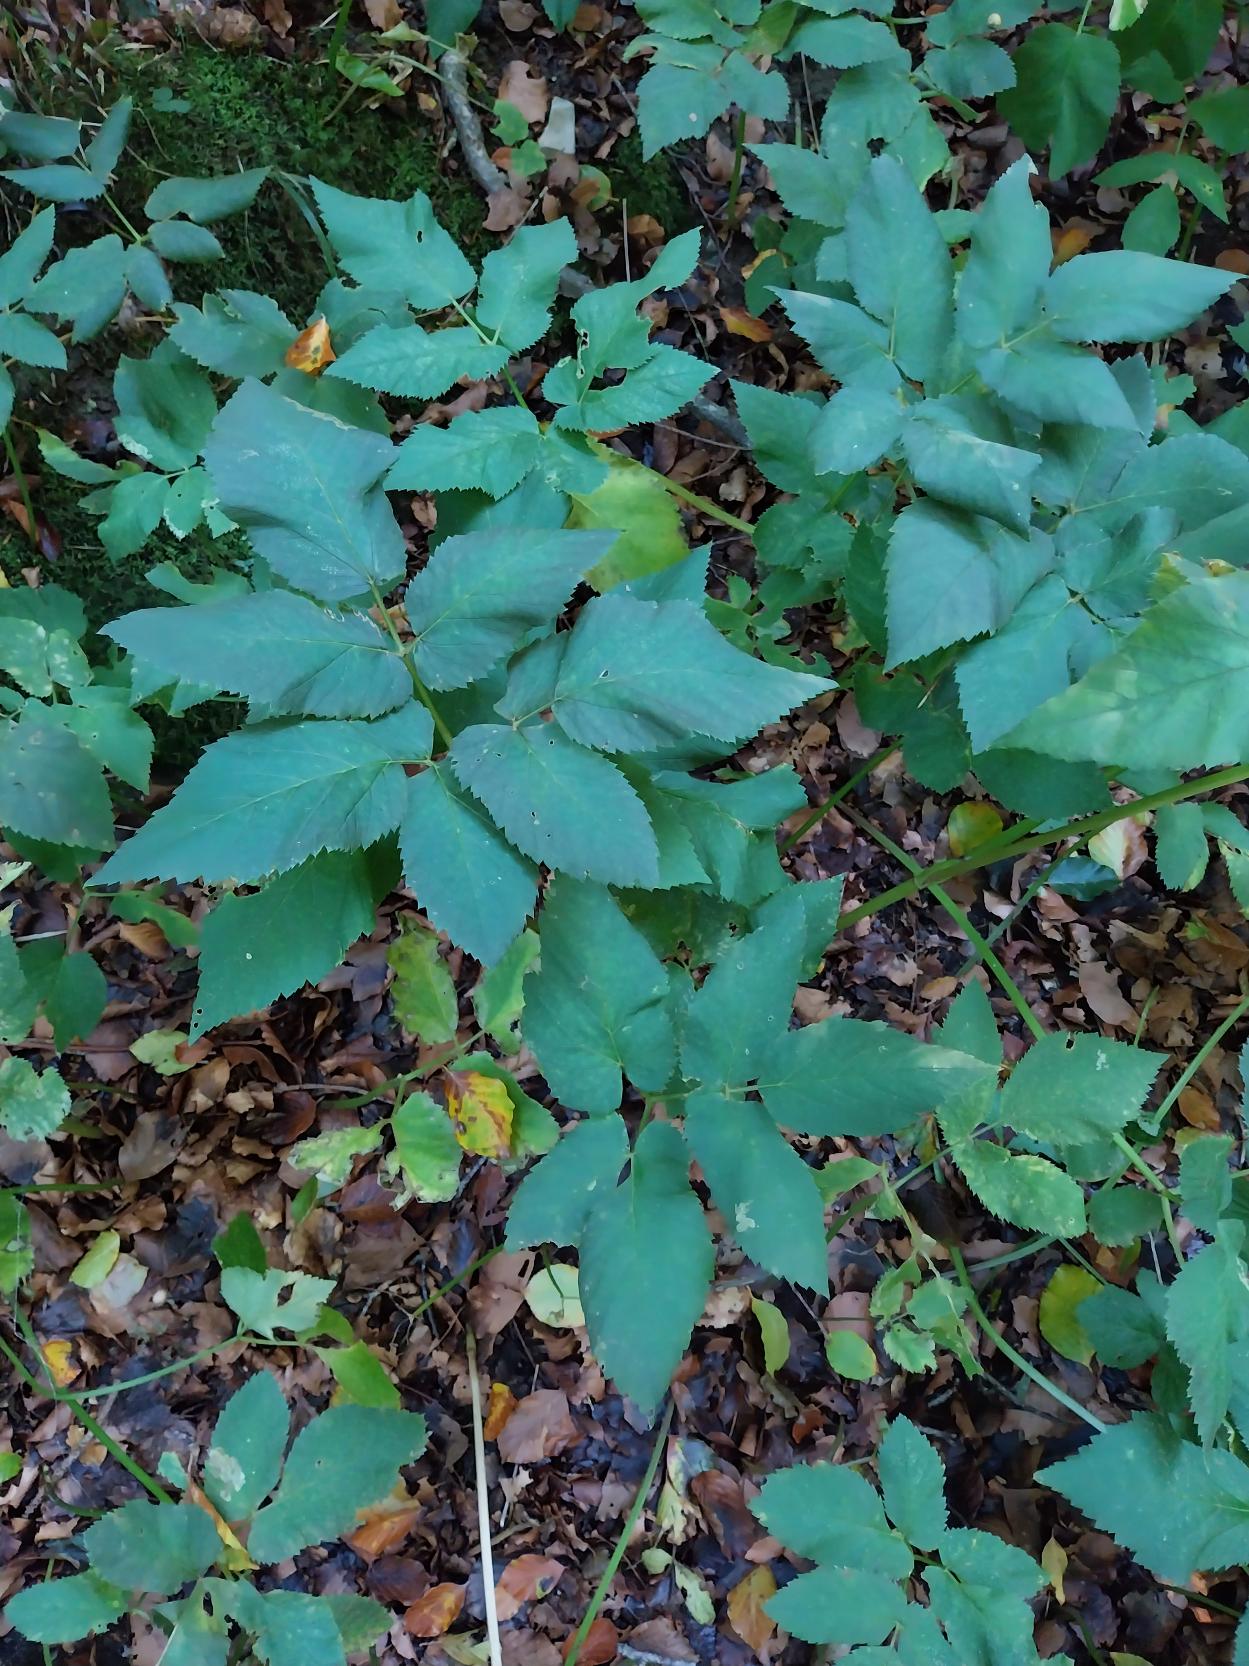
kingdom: Plantae
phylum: Tracheophyta
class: Magnoliopsida
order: Apiales
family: Apiaceae
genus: Aegopodium
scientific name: Aegopodium podagraria
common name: Skvalderkål
